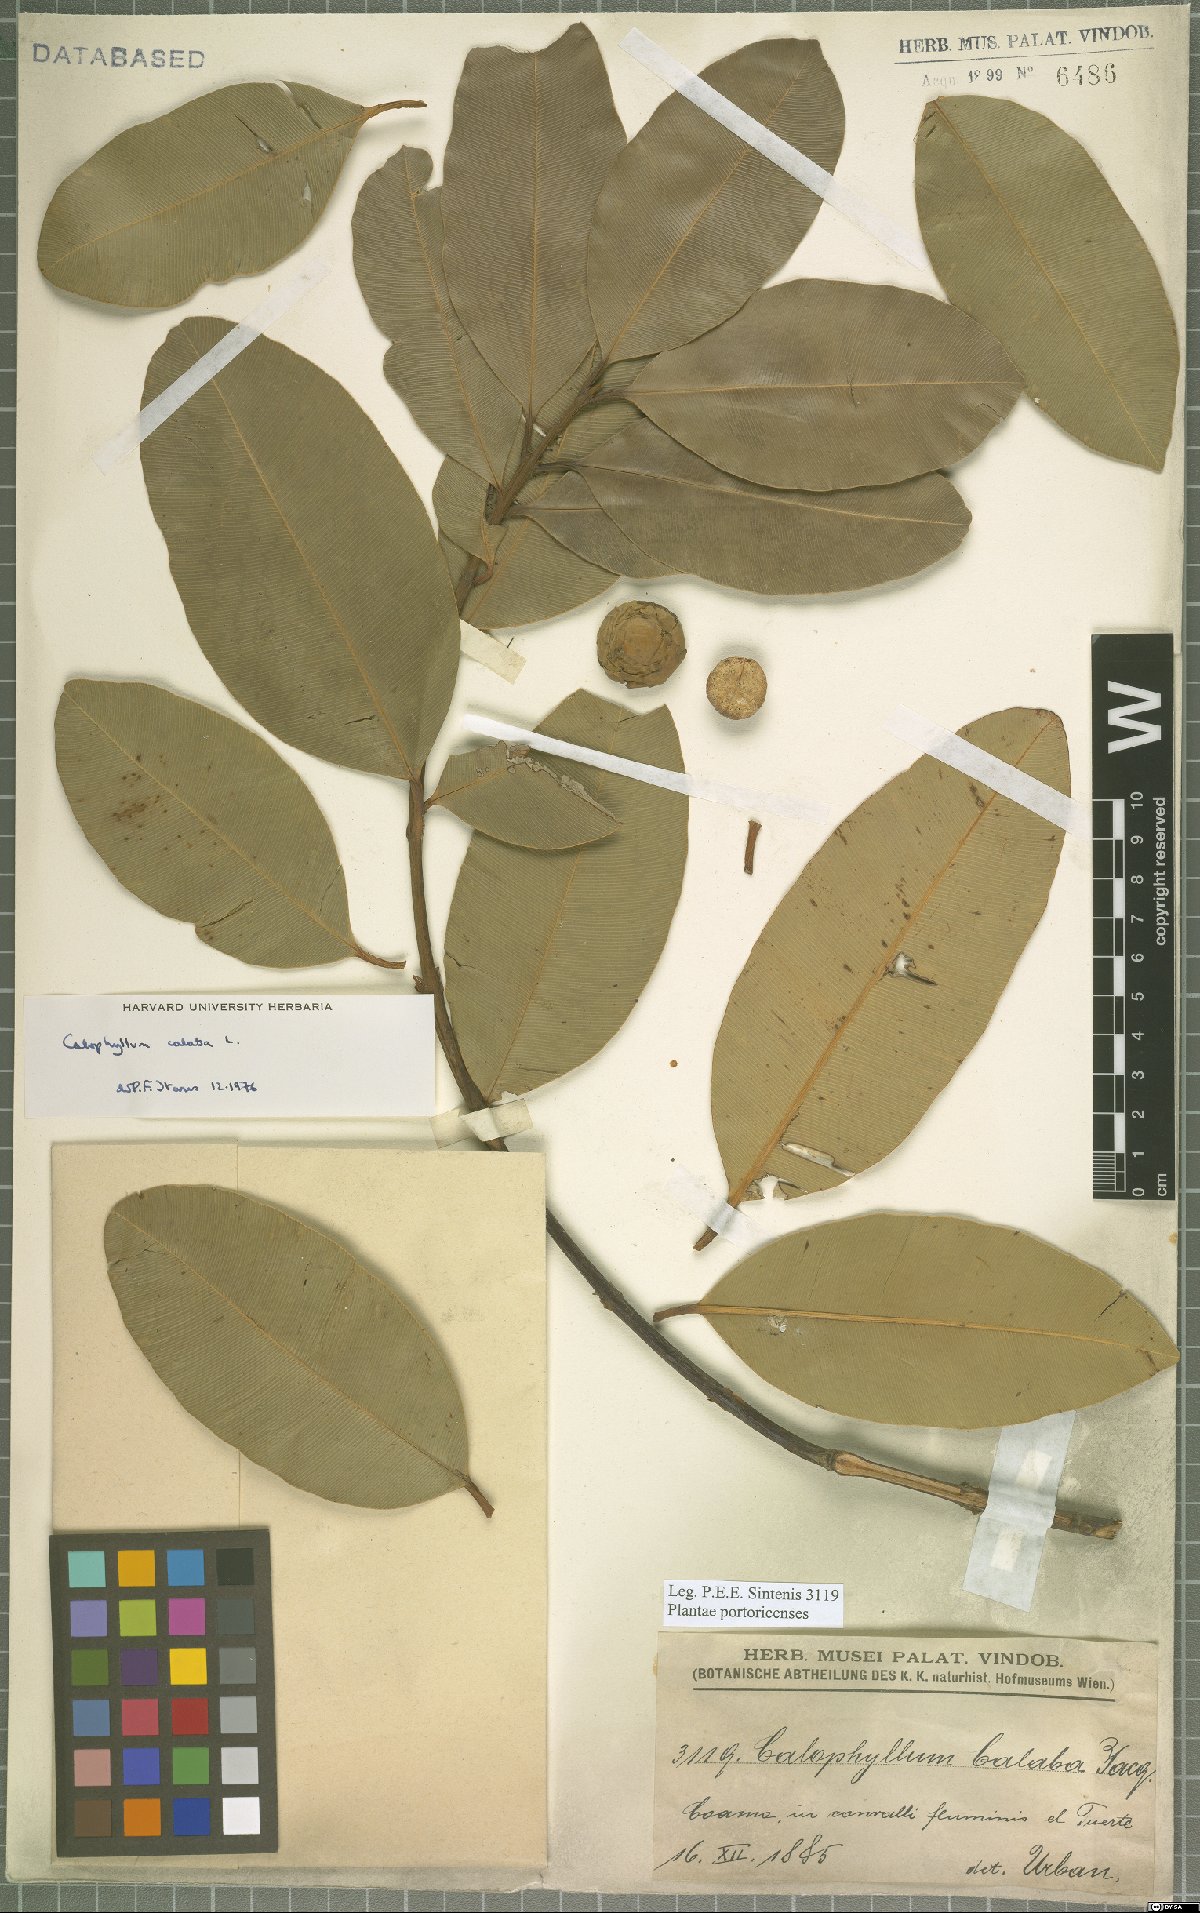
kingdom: Plantae
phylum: Tracheophyta
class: Magnoliopsida
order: Malpighiales
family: Calophyllaceae
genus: Calophyllum
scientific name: Calophyllum calaba
